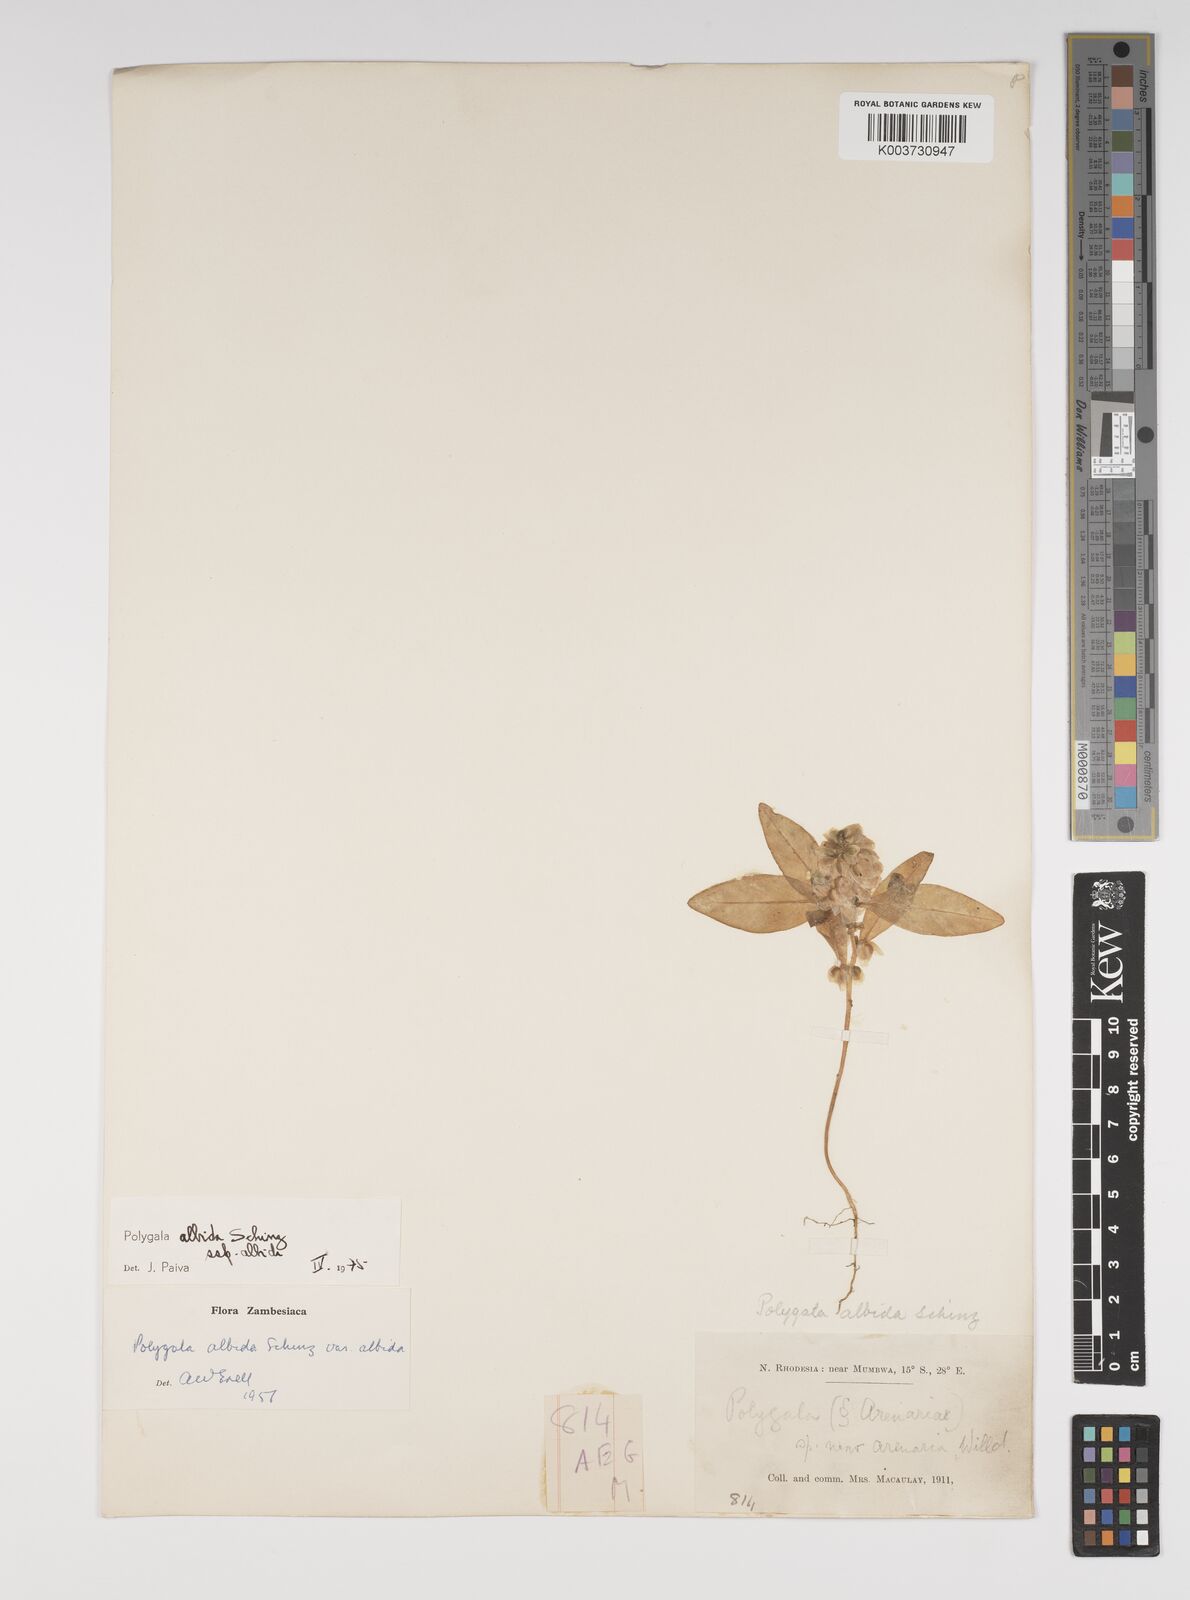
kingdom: Plantae
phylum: Tracheophyta
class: Magnoliopsida
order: Fabales
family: Polygalaceae
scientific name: Polygalaceae
